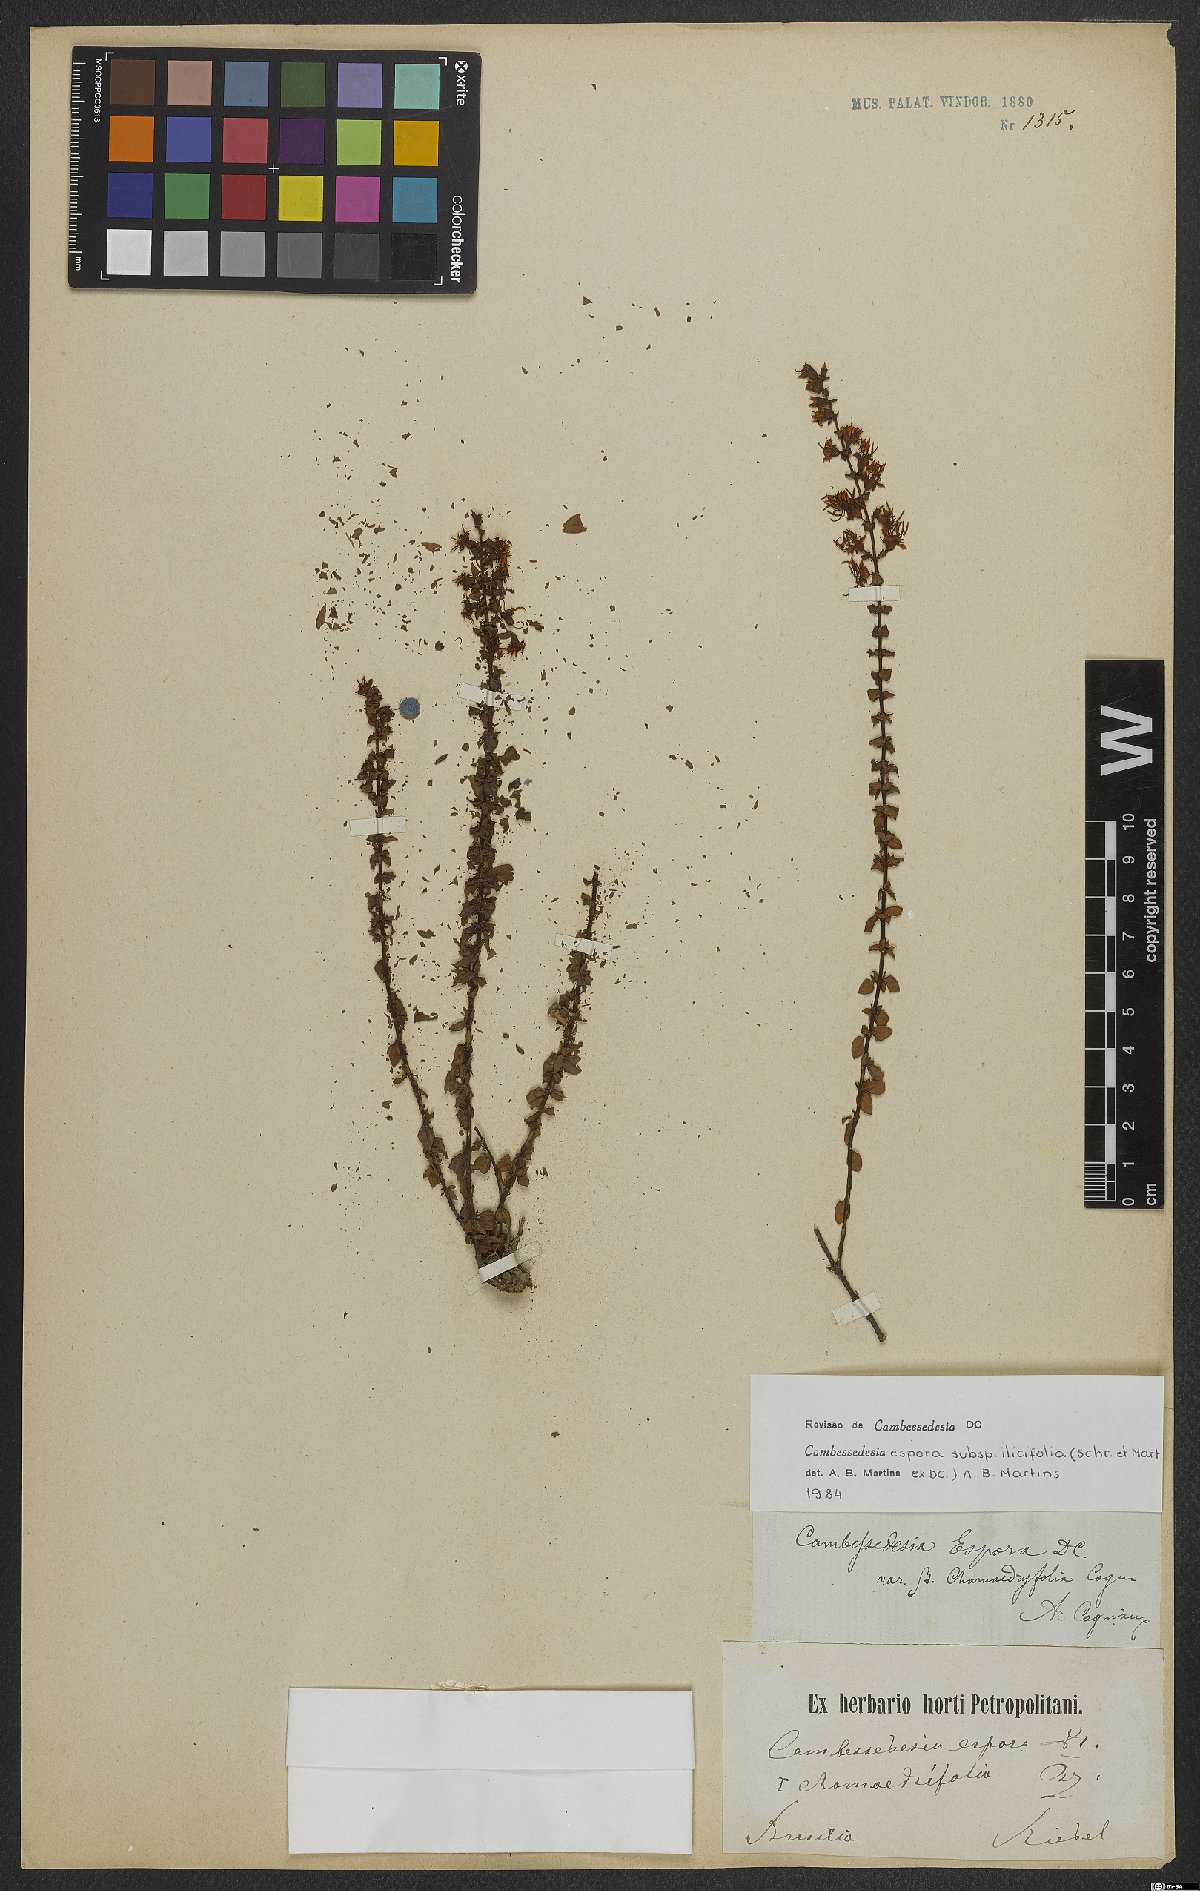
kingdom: Plantae
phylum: Tracheophyta
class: Magnoliopsida
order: Myrtales
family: Melastomataceae
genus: Cambessedesia
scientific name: Cambessedesia espora
